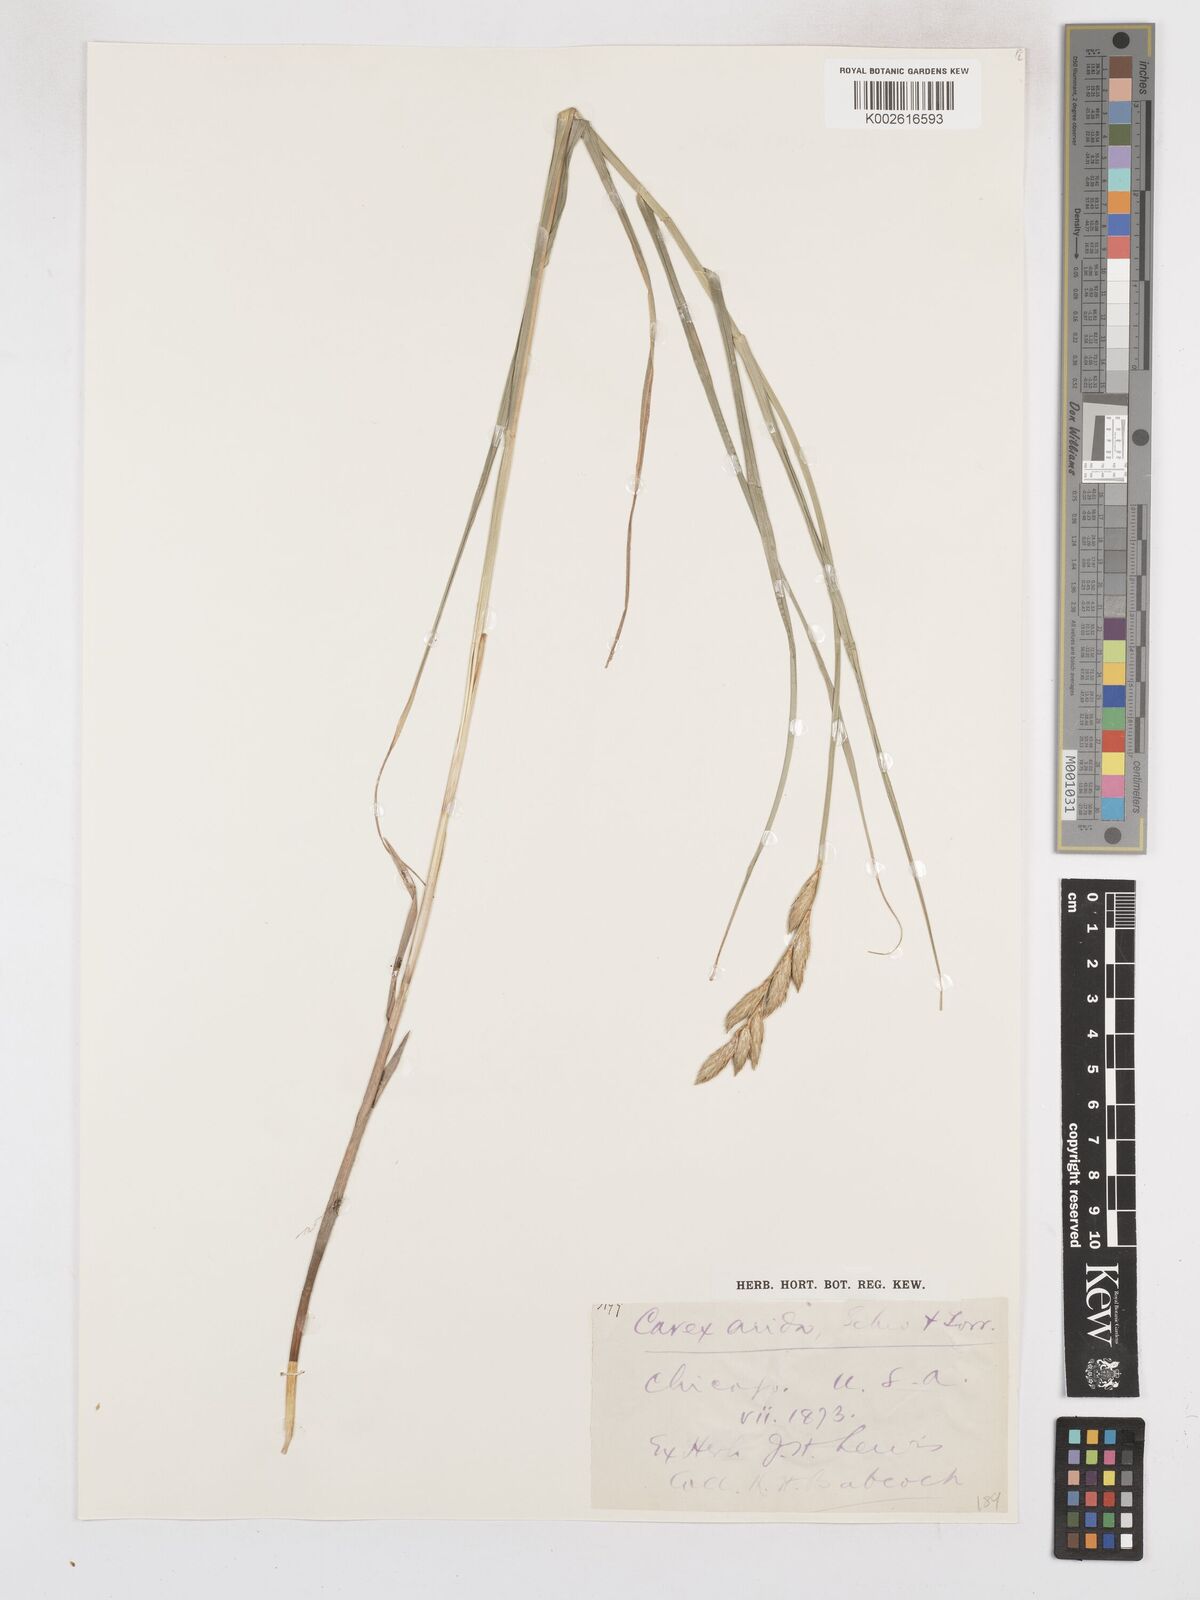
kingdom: Plantae
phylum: Tracheophyta
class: Liliopsida
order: Poales
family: Cyperaceae
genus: Carex
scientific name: Carex muskingumensis
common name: Muskingum sedge
